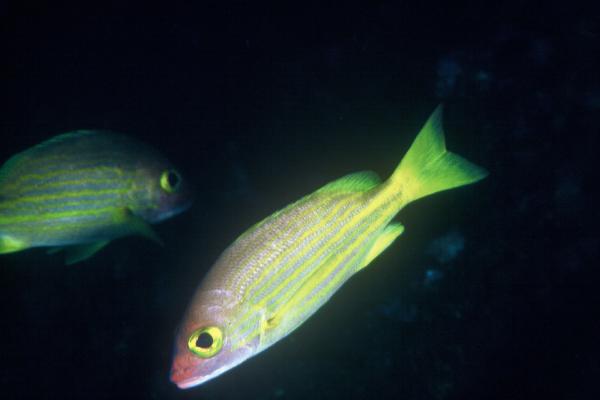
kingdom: Animalia
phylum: Chordata
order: Perciformes
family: Lutjanidae
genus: Lutjanus
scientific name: Lutjanus rufolineatus
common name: Yellow-lined seaperch
